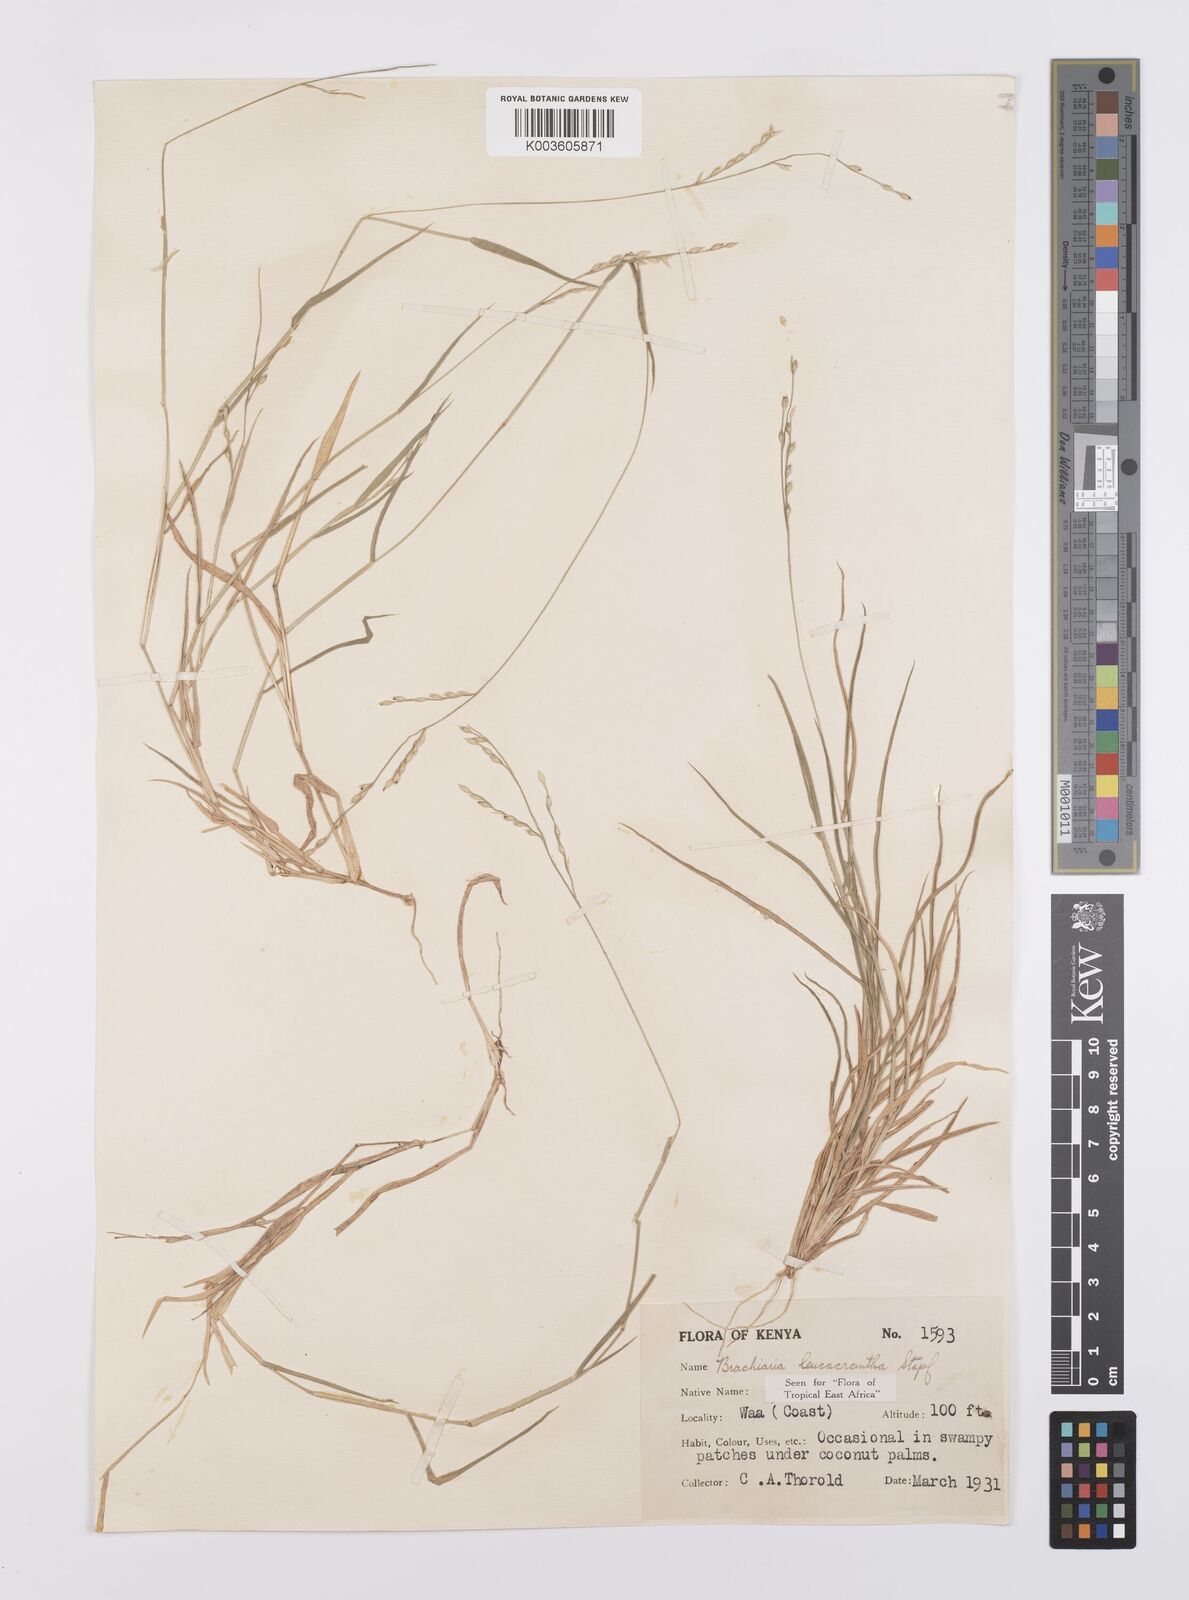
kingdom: Plantae
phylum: Tracheophyta
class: Liliopsida
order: Poales
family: Poaceae
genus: Urochloa
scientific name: Urochloa xantholeuca
